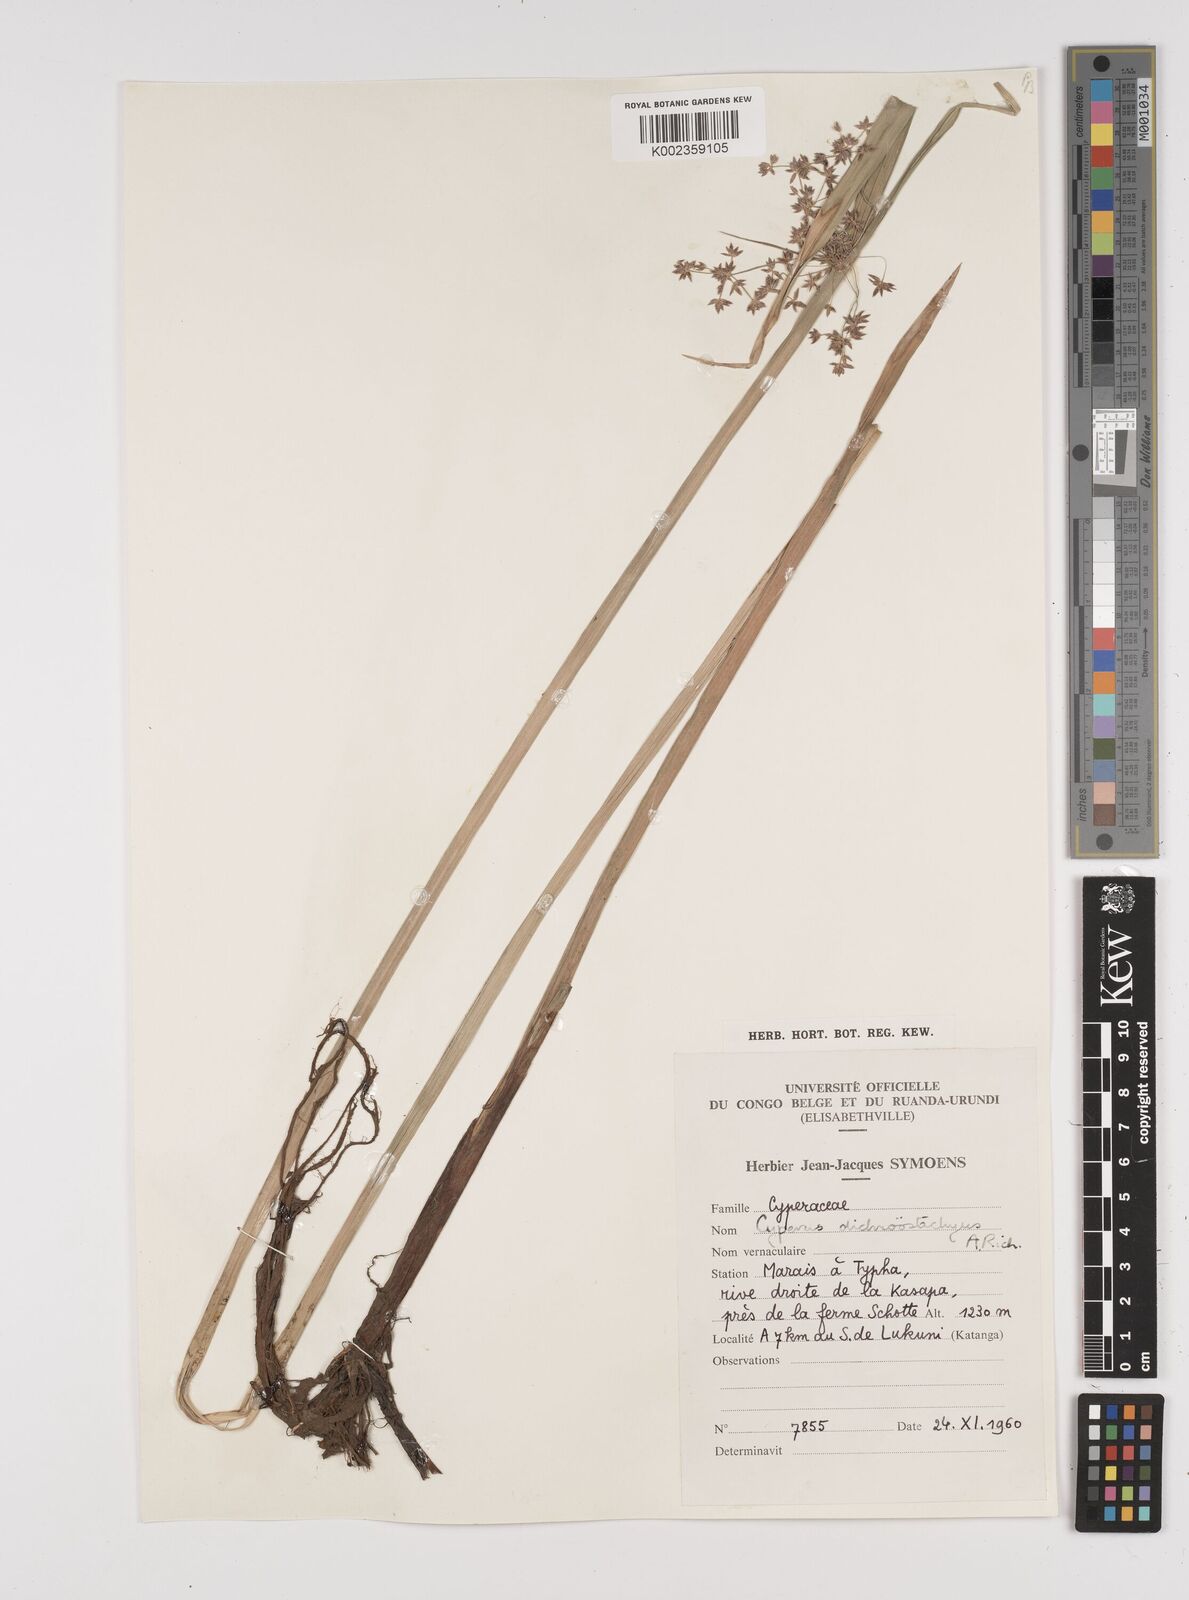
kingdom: Plantae
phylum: Tracheophyta
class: Liliopsida
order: Poales
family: Cyperaceae
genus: Cyperus
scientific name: Cyperus dichrostachyus
